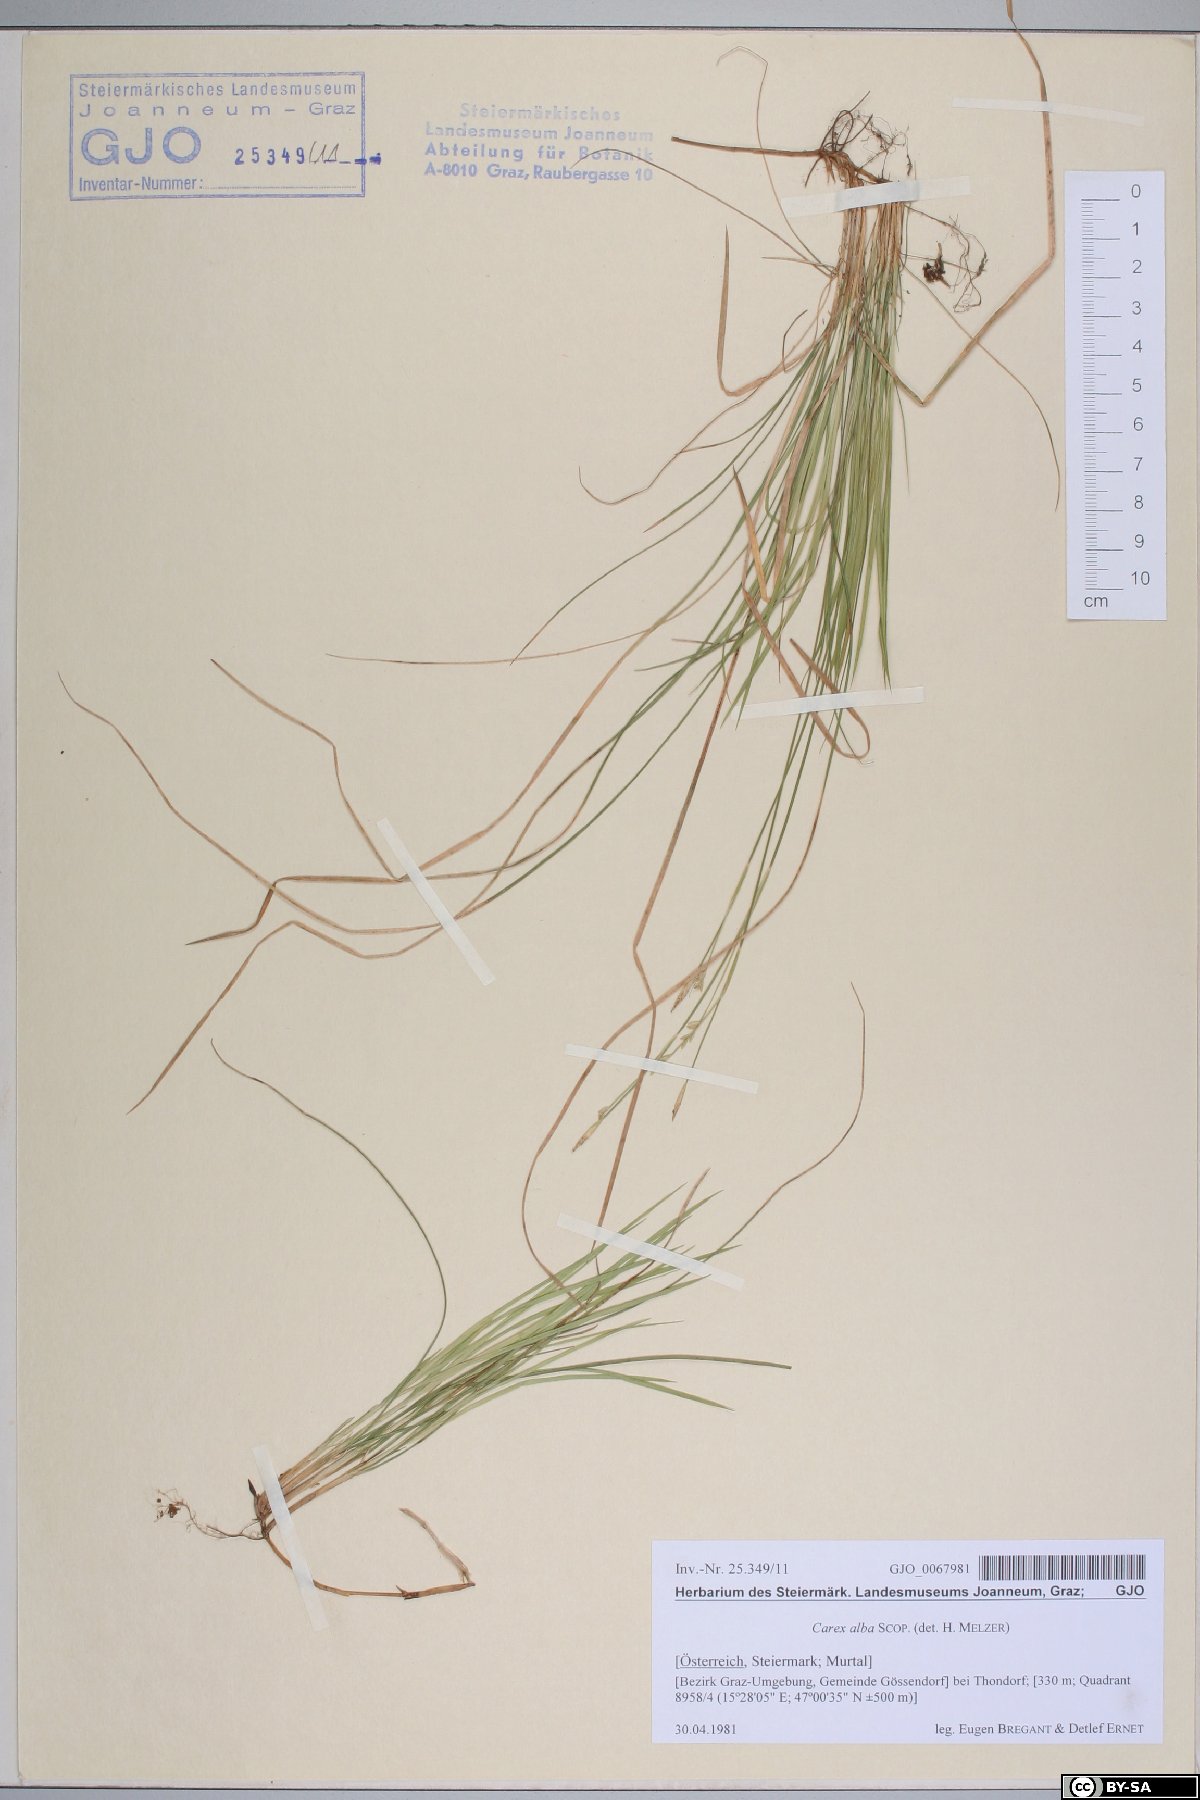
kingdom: Plantae
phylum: Tracheophyta
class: Liliopsida
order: Poales
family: Cyperaceae
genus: Carex
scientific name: Carex alba
